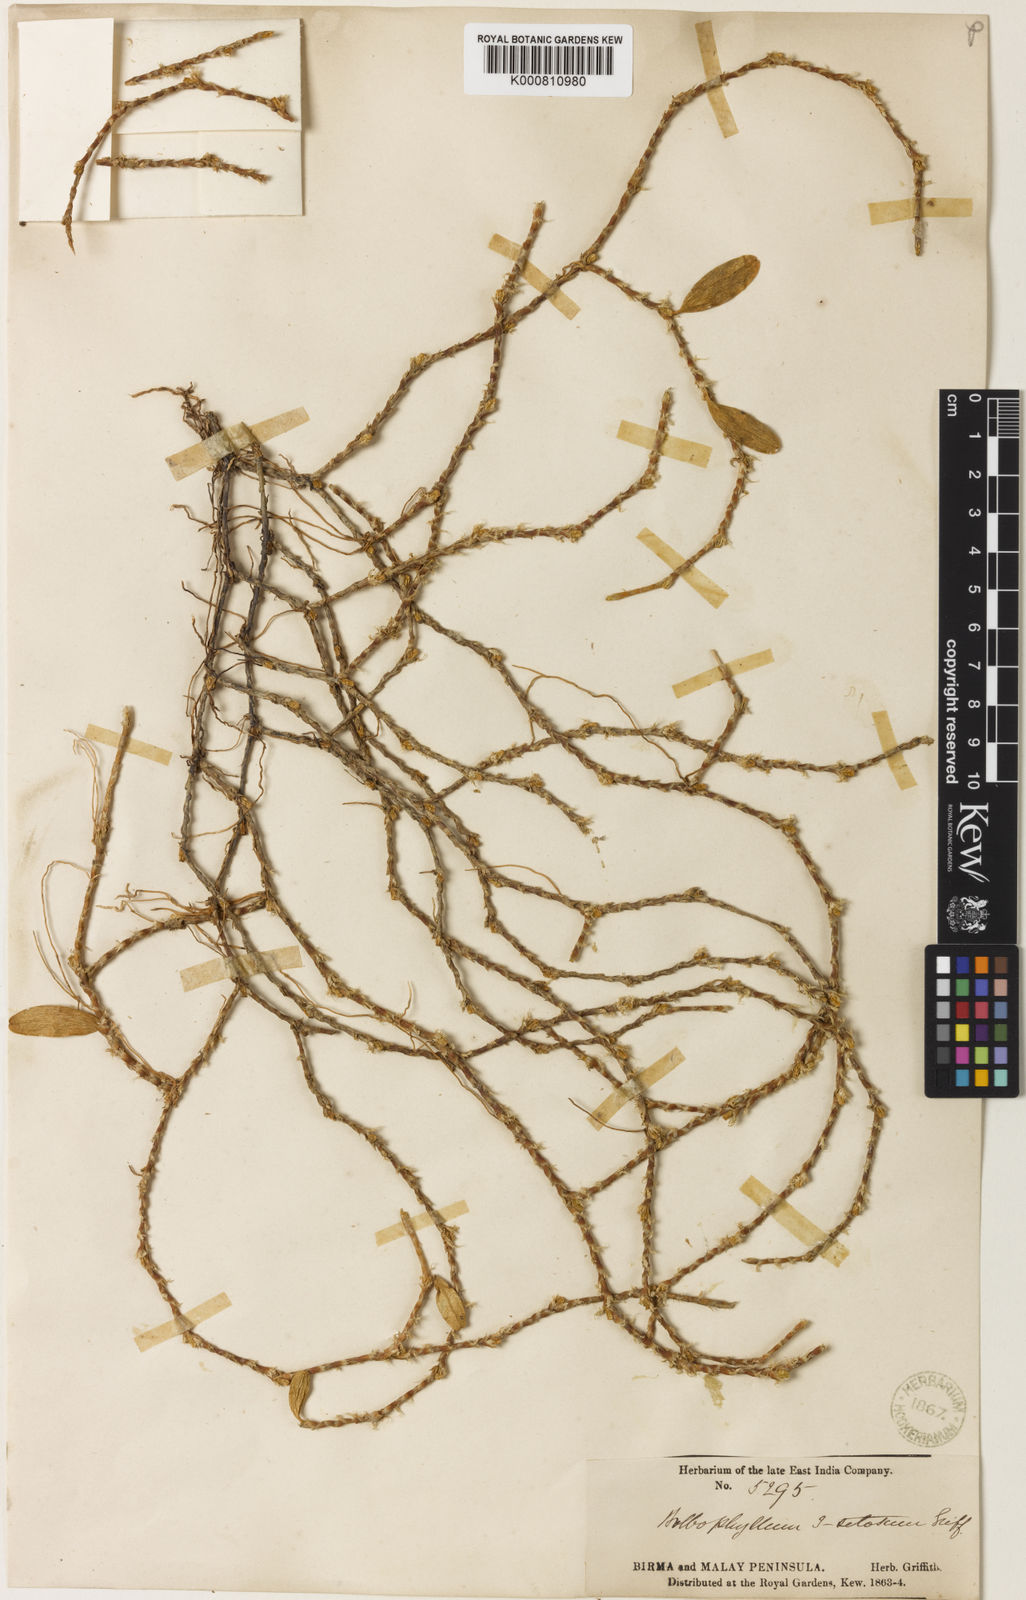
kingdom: Plantae
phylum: Tracheophyta
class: Liliopsida
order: Asparagales
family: Orchidaceae
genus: Bulbophyllum
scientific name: Bulbophyllum clandestinum
